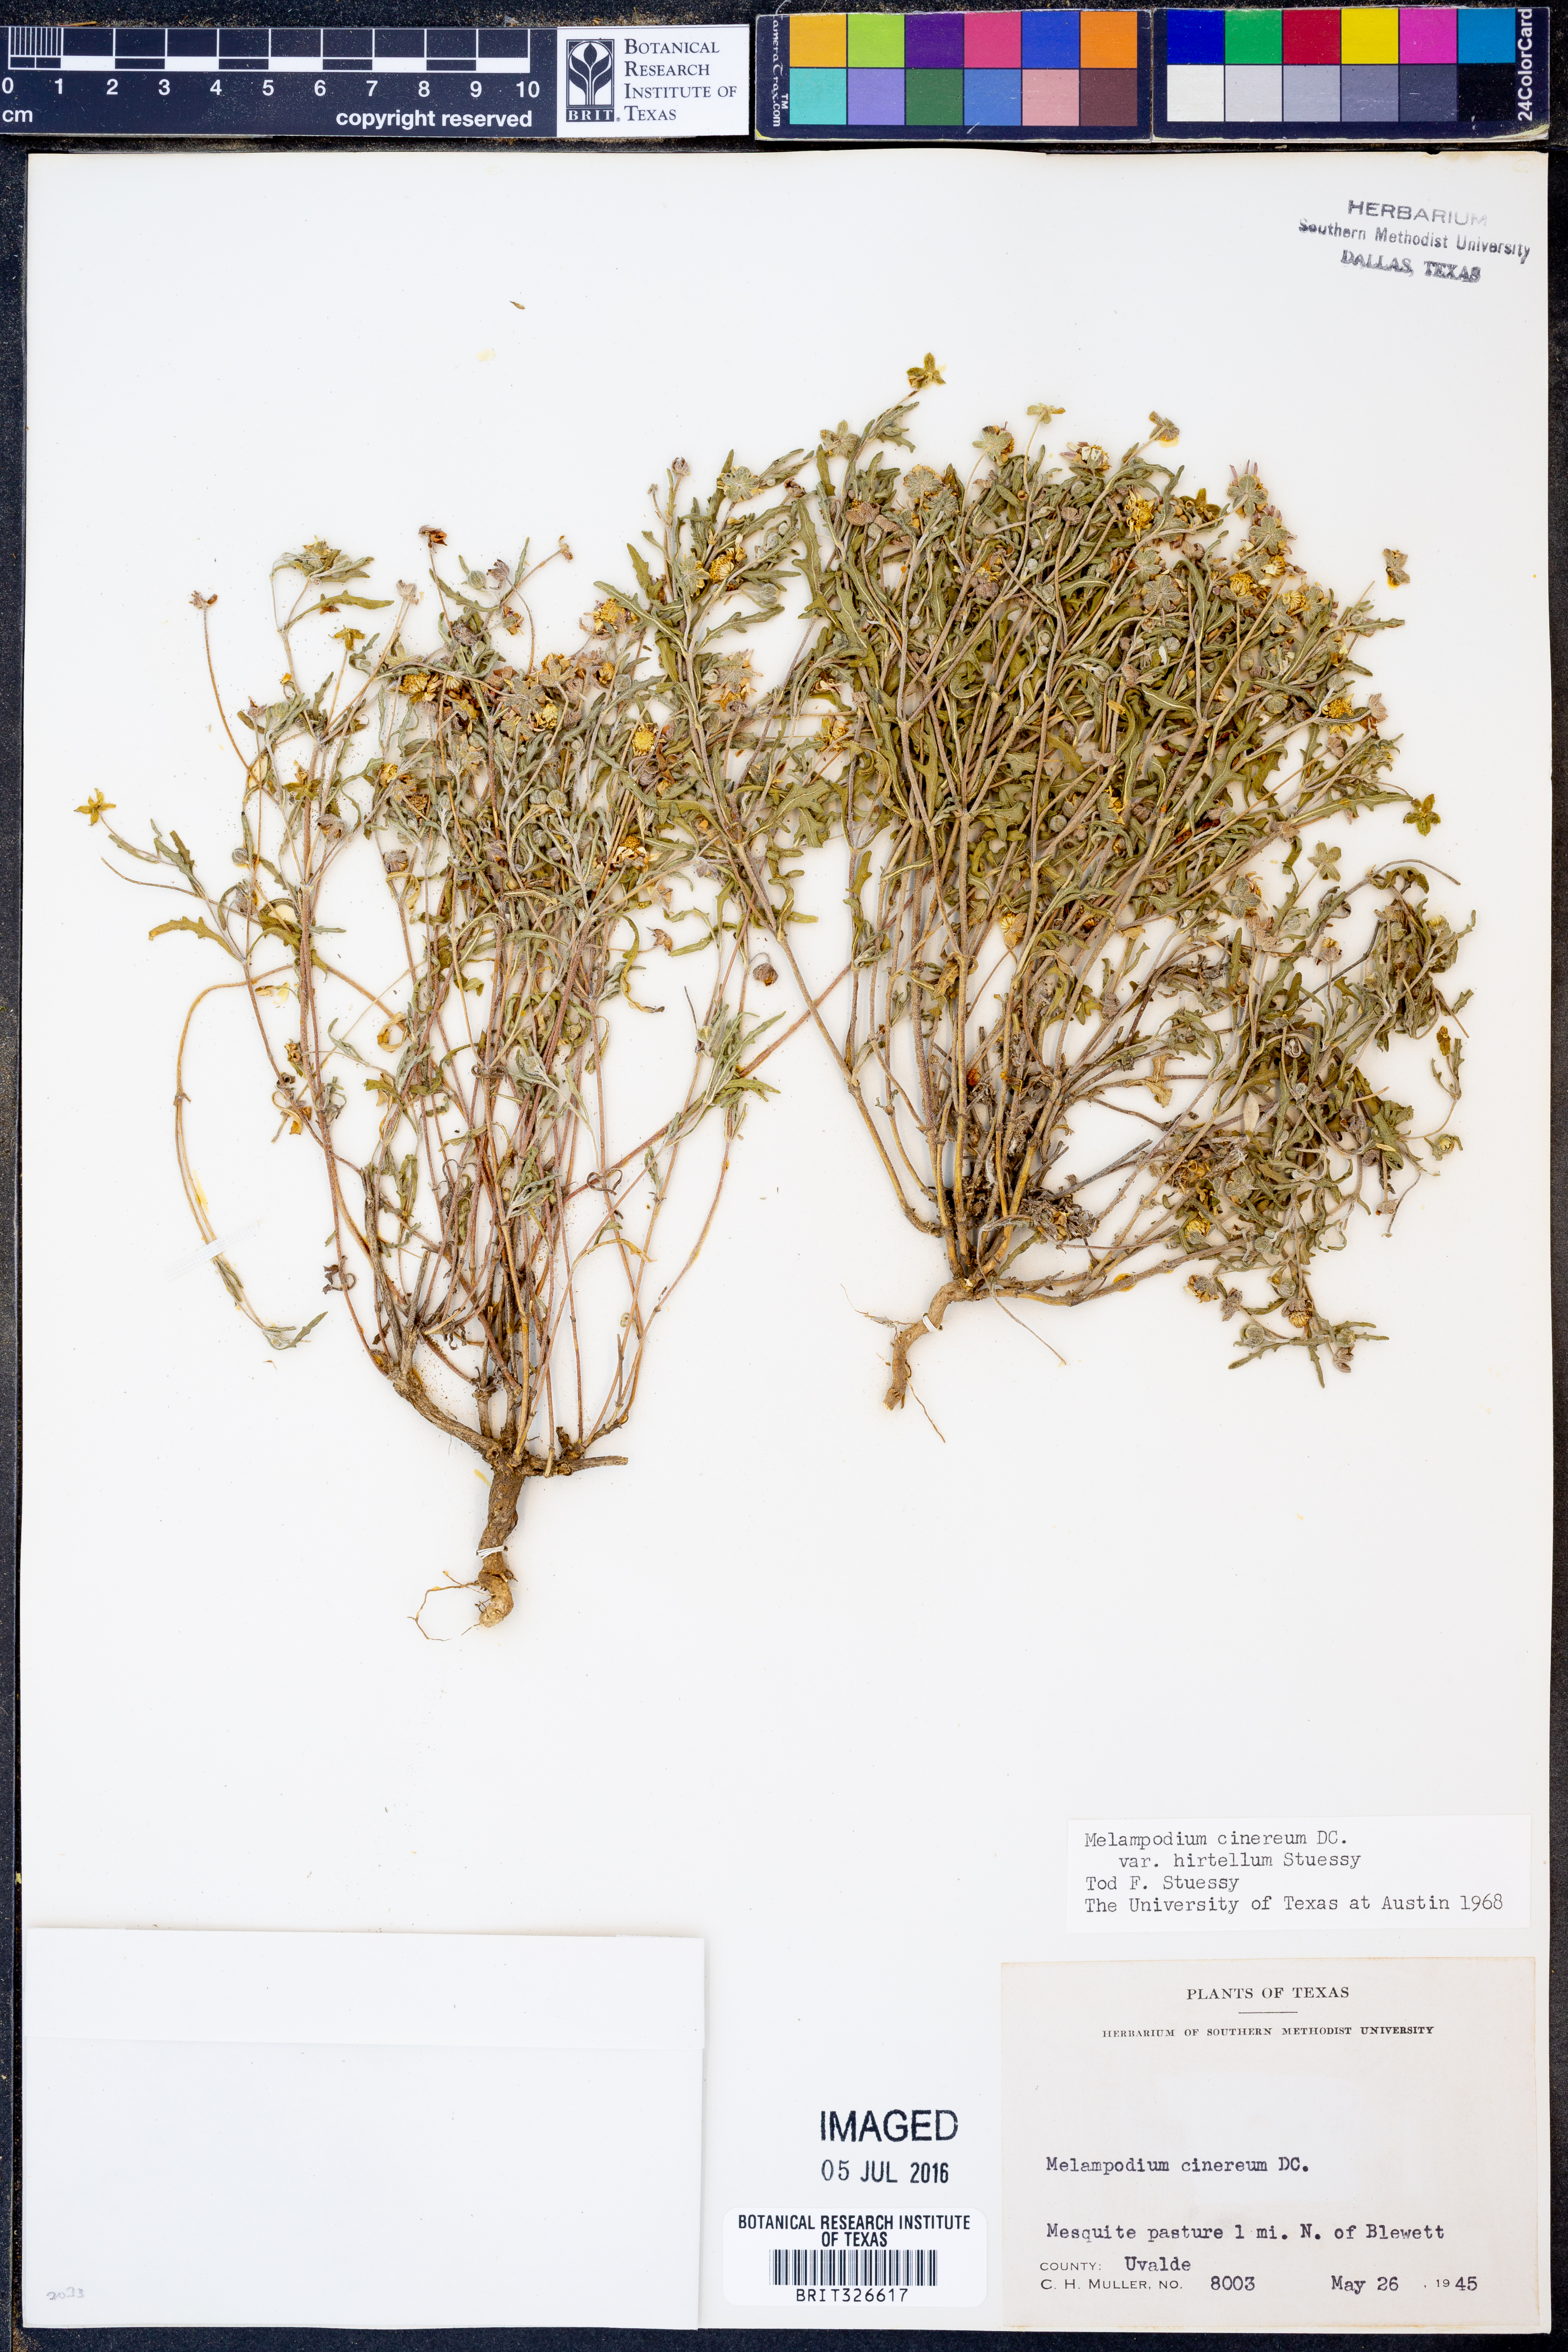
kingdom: Plantae
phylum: Tracheophyta
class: Magnoliopsida
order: Asterales
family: Asteraceae
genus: Melampodium
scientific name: Melampodium cinereum
